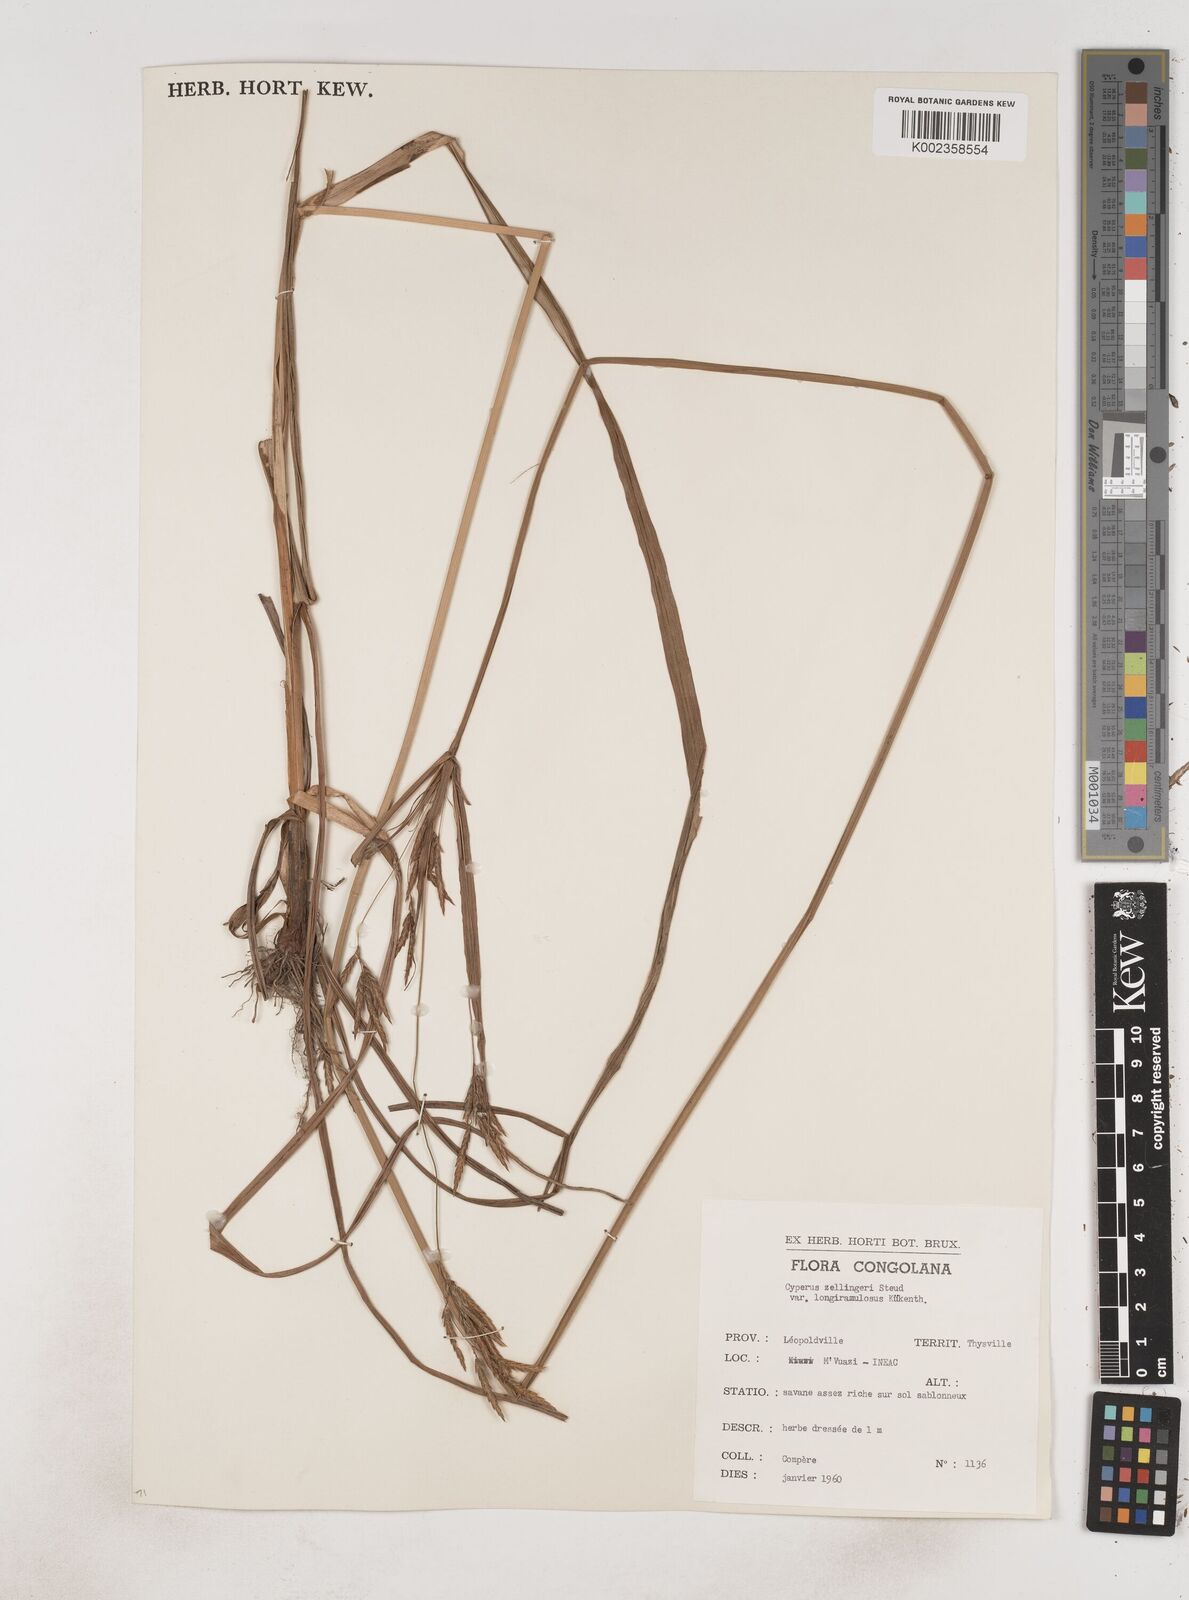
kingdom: Plantae
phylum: Tracheophyta
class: Liliopsida
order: Poales
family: Cyperaceae
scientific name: Cyperaceae
